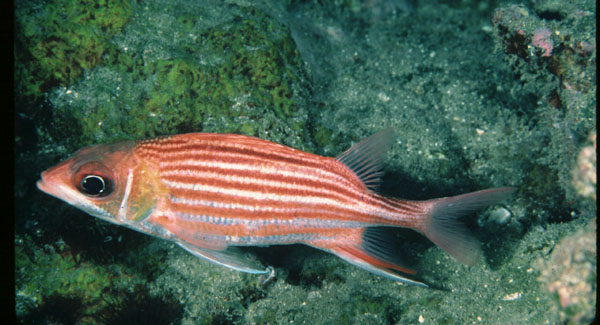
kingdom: Animalia
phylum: Chordata
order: Beryciformes
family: Holocentridae
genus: Sargocentron
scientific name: Sargocentron microstoma
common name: Fine-lined squirrelfish
